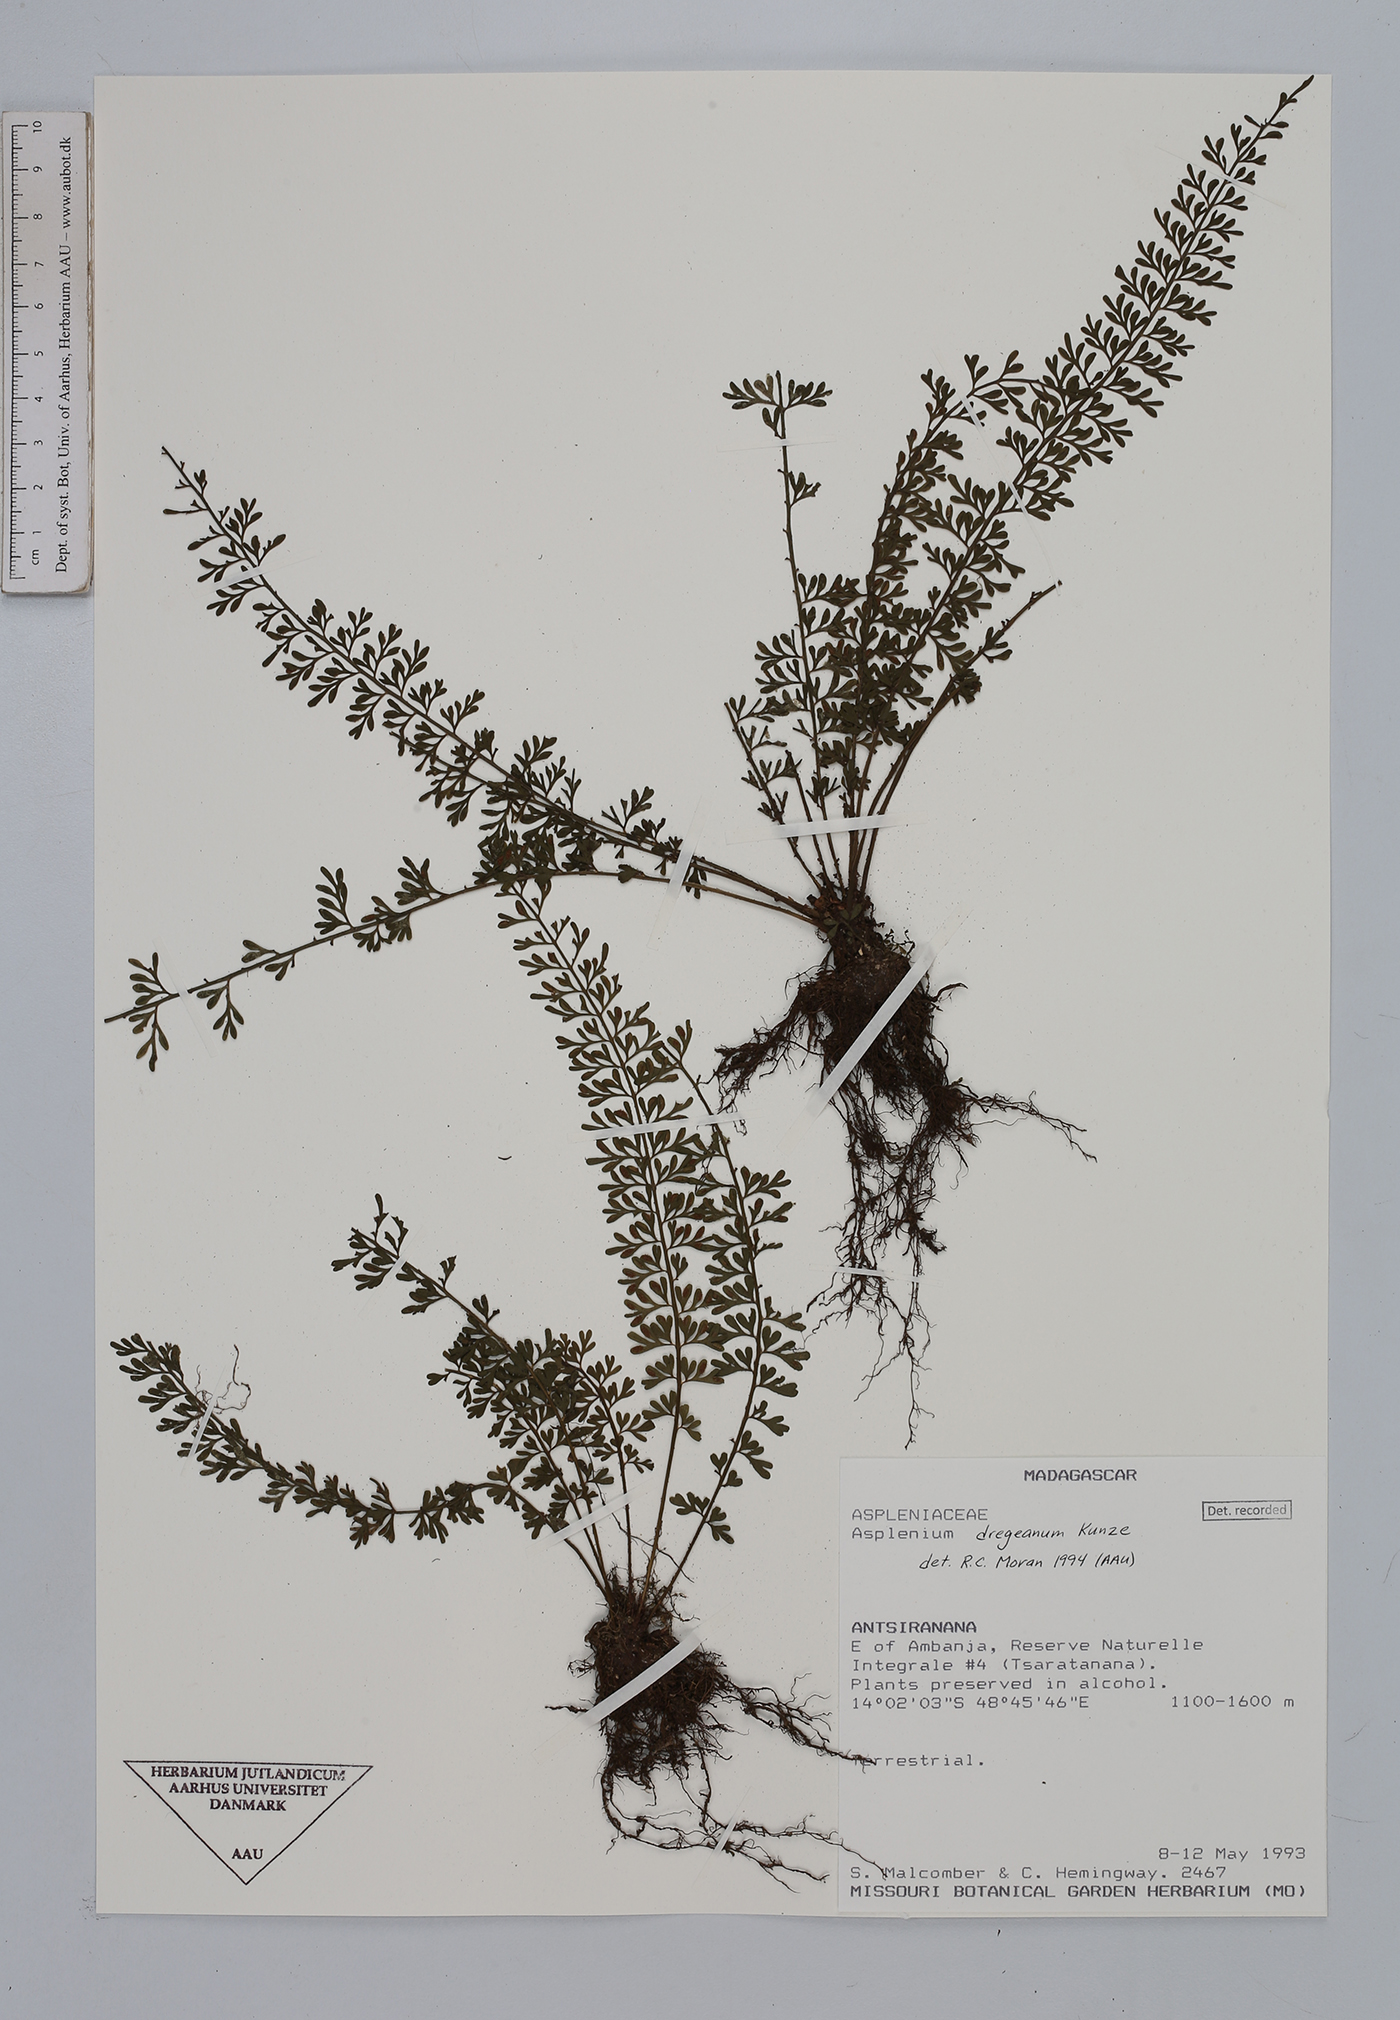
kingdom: Plantae
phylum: Tracheophyta
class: Polypodiopsida
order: Polypodiales
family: Aspleniaceae
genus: Asplenium
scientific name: Asplenium dregeanum
